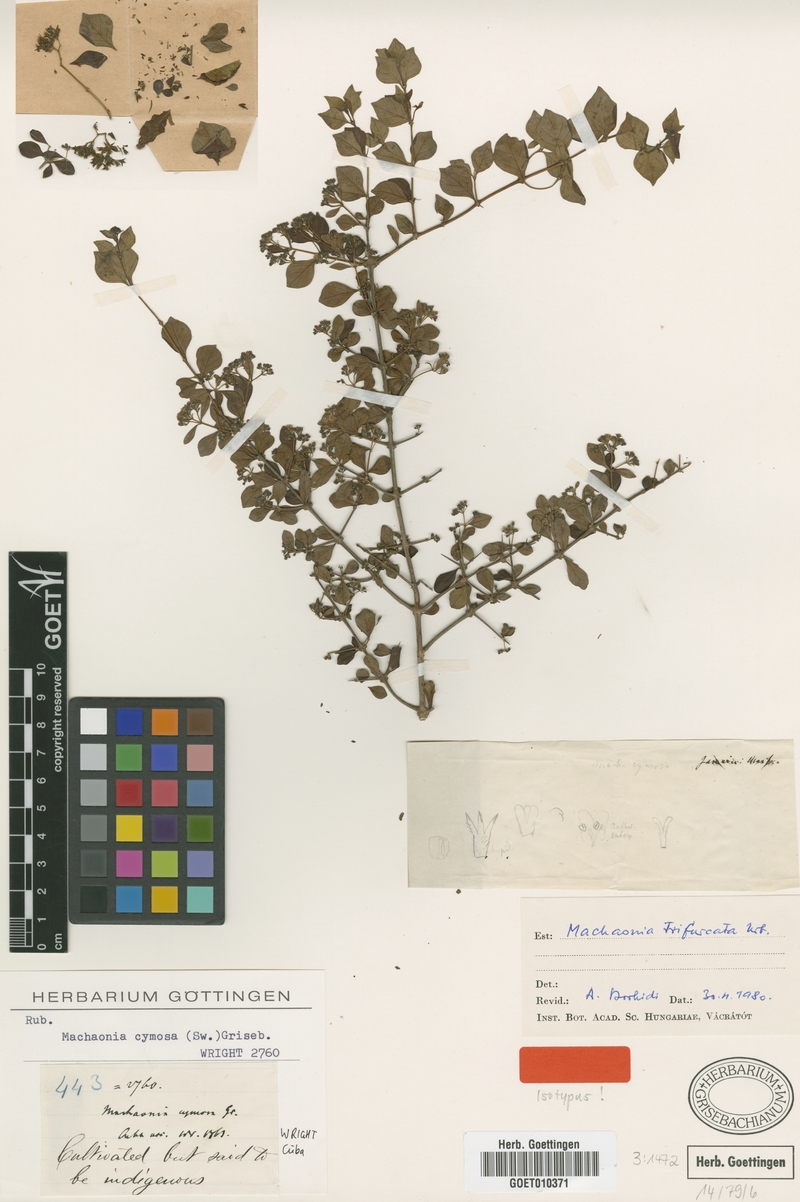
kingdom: Plantae
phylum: Tracheophyta
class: Magnoliopsida
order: Gentianales
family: Rubiaceae
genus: Machaonia
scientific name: Machaonia pauciflora
